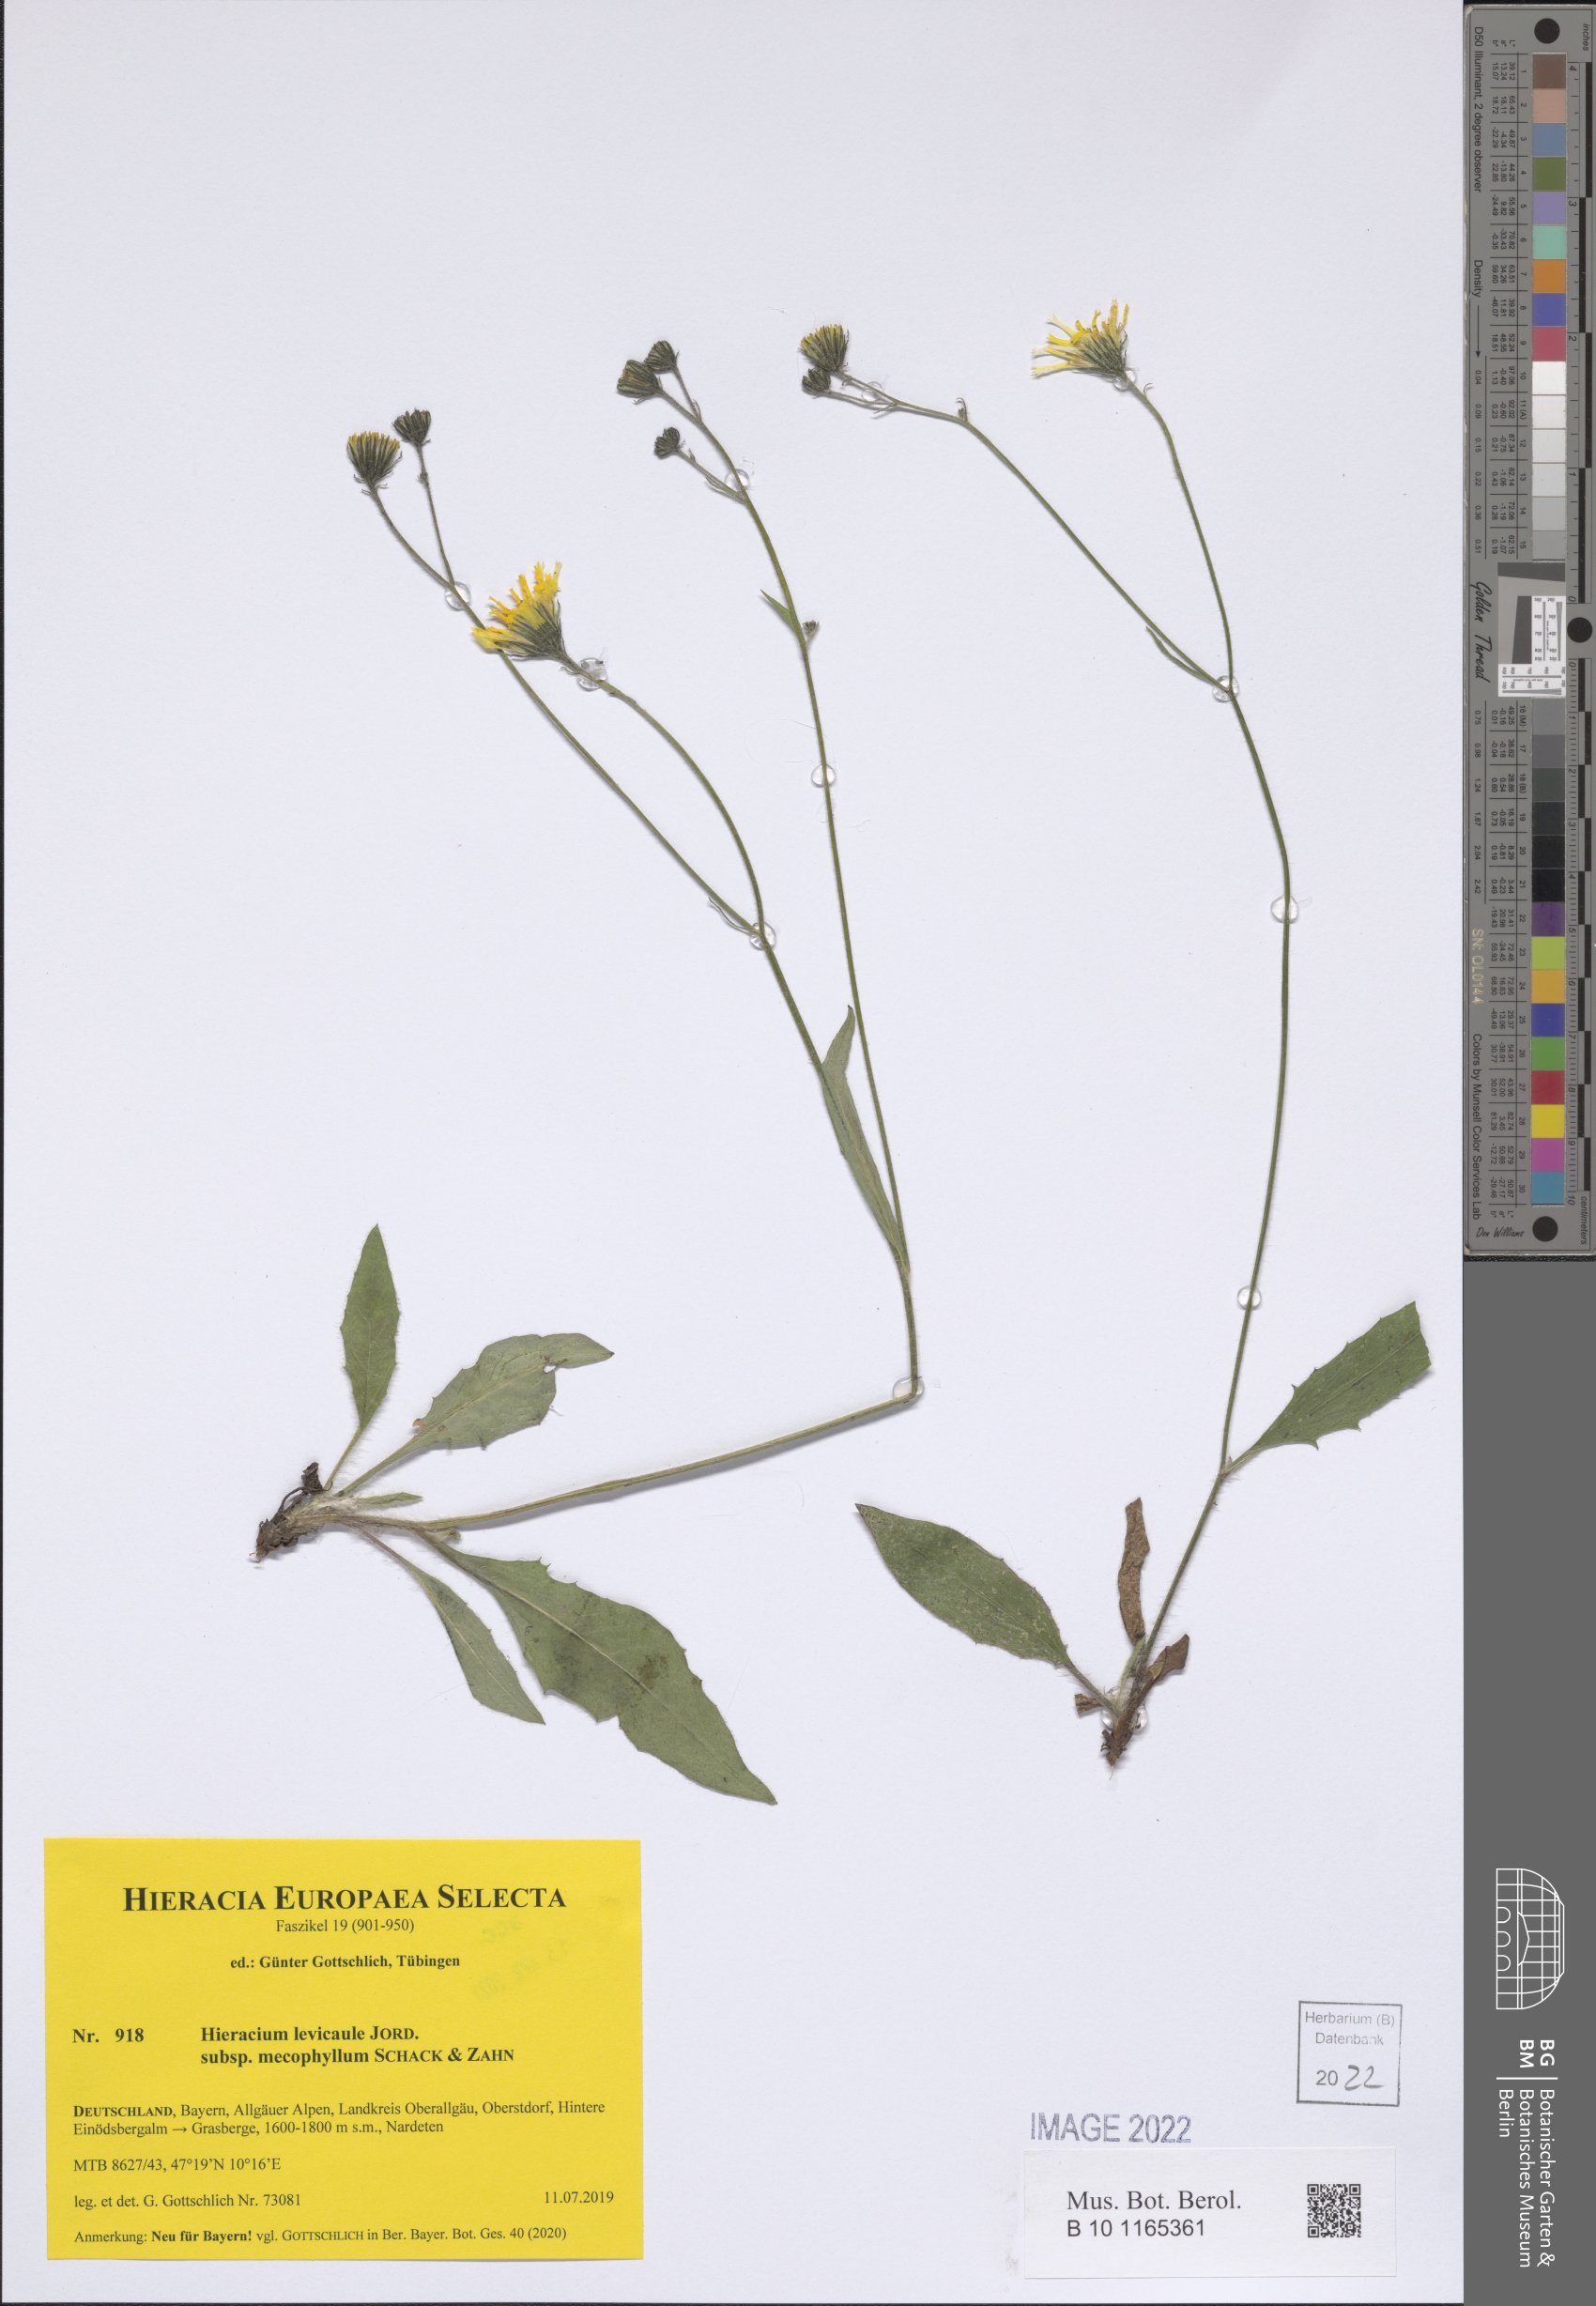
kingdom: Plantae
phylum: Tracheophyta
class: Magnoliopsida
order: Asterales
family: Asteraceae
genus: Hieracium
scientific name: Hieracium levicaule
